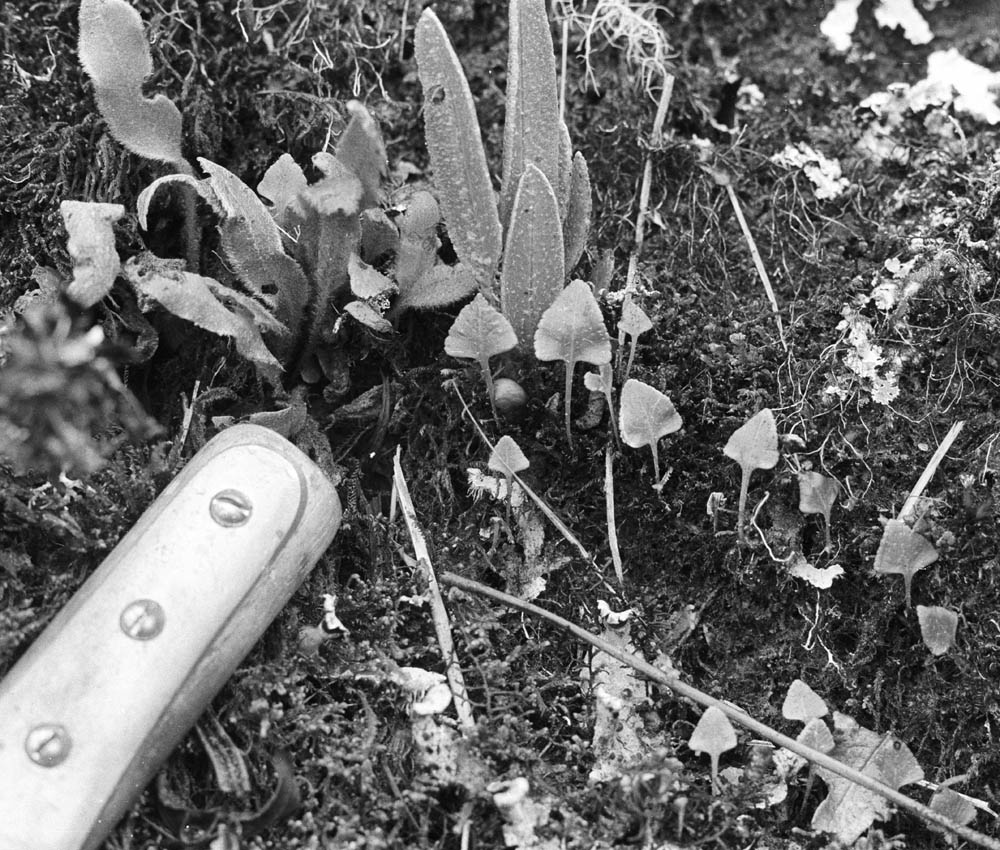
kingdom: Plantae
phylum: Tracheophyta
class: Polypodiopsida
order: Polypodiales
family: Dryopteridaceae
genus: Elaphoglossum
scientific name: Elaphoglossum rhomboideum
